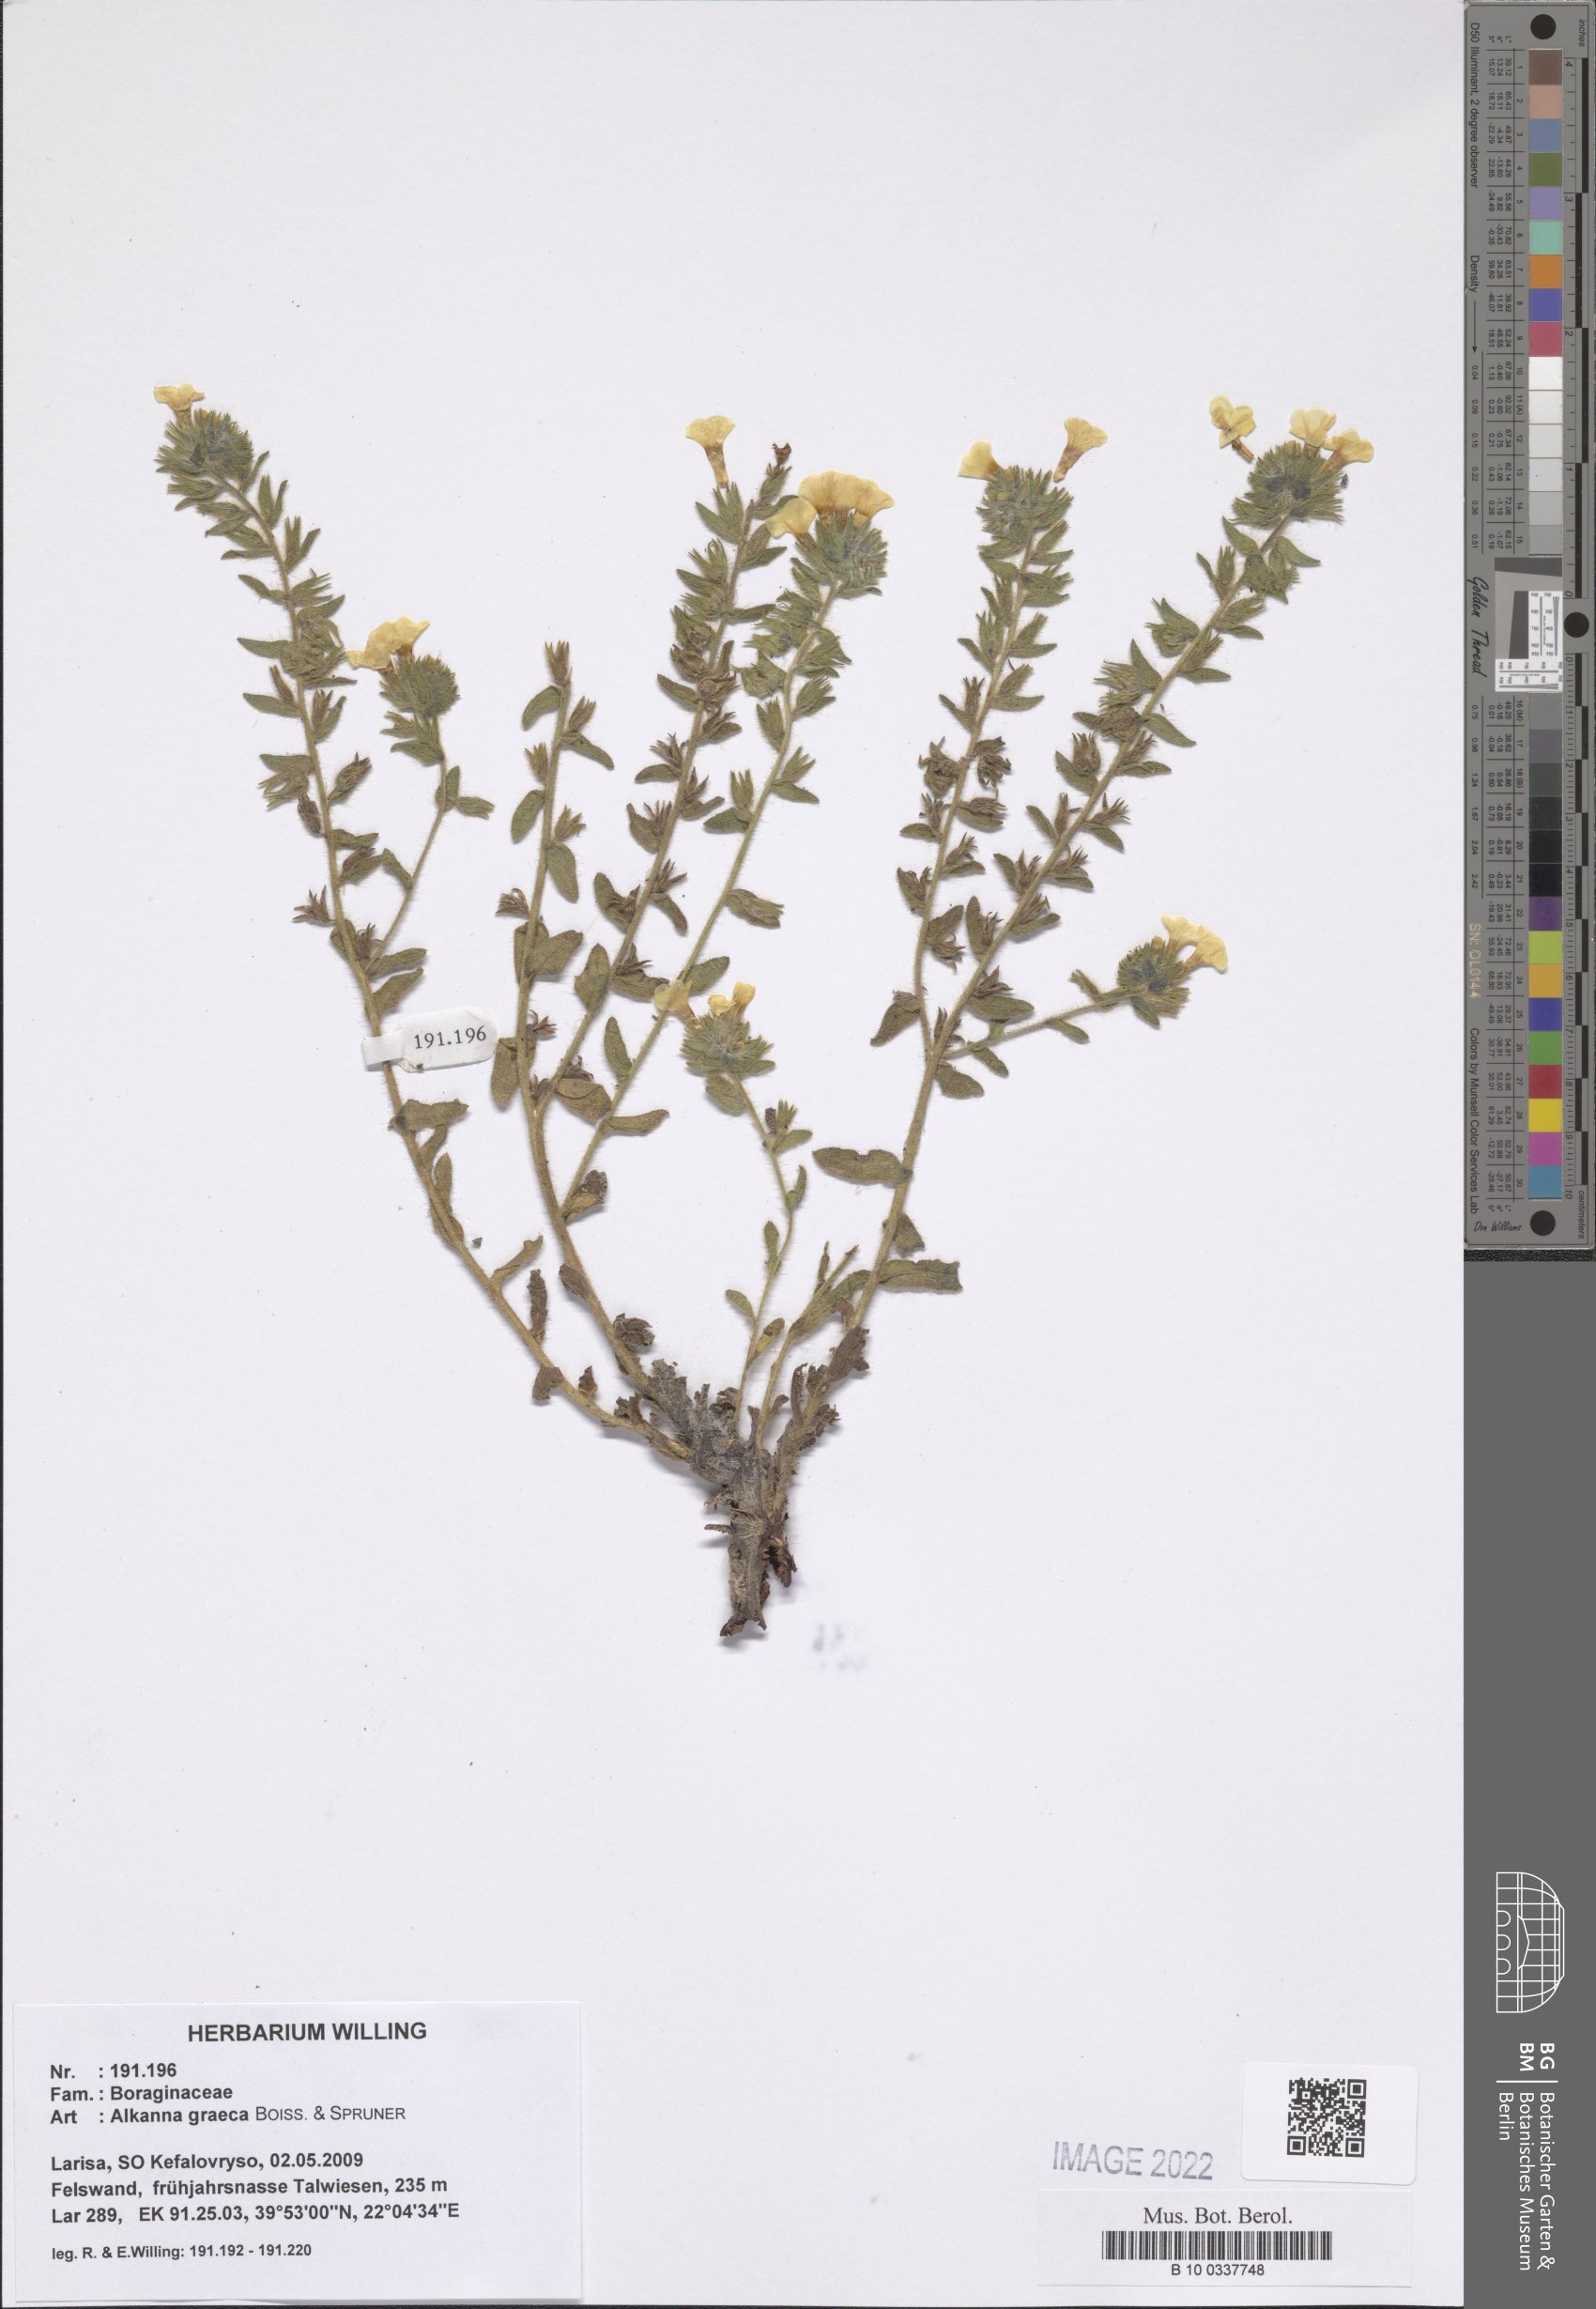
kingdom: Plantae
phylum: Tracheophyta
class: Magnoliopsida
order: Boraginales
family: Boraginaceae
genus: Alkanna
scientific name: Alkanna graeca
